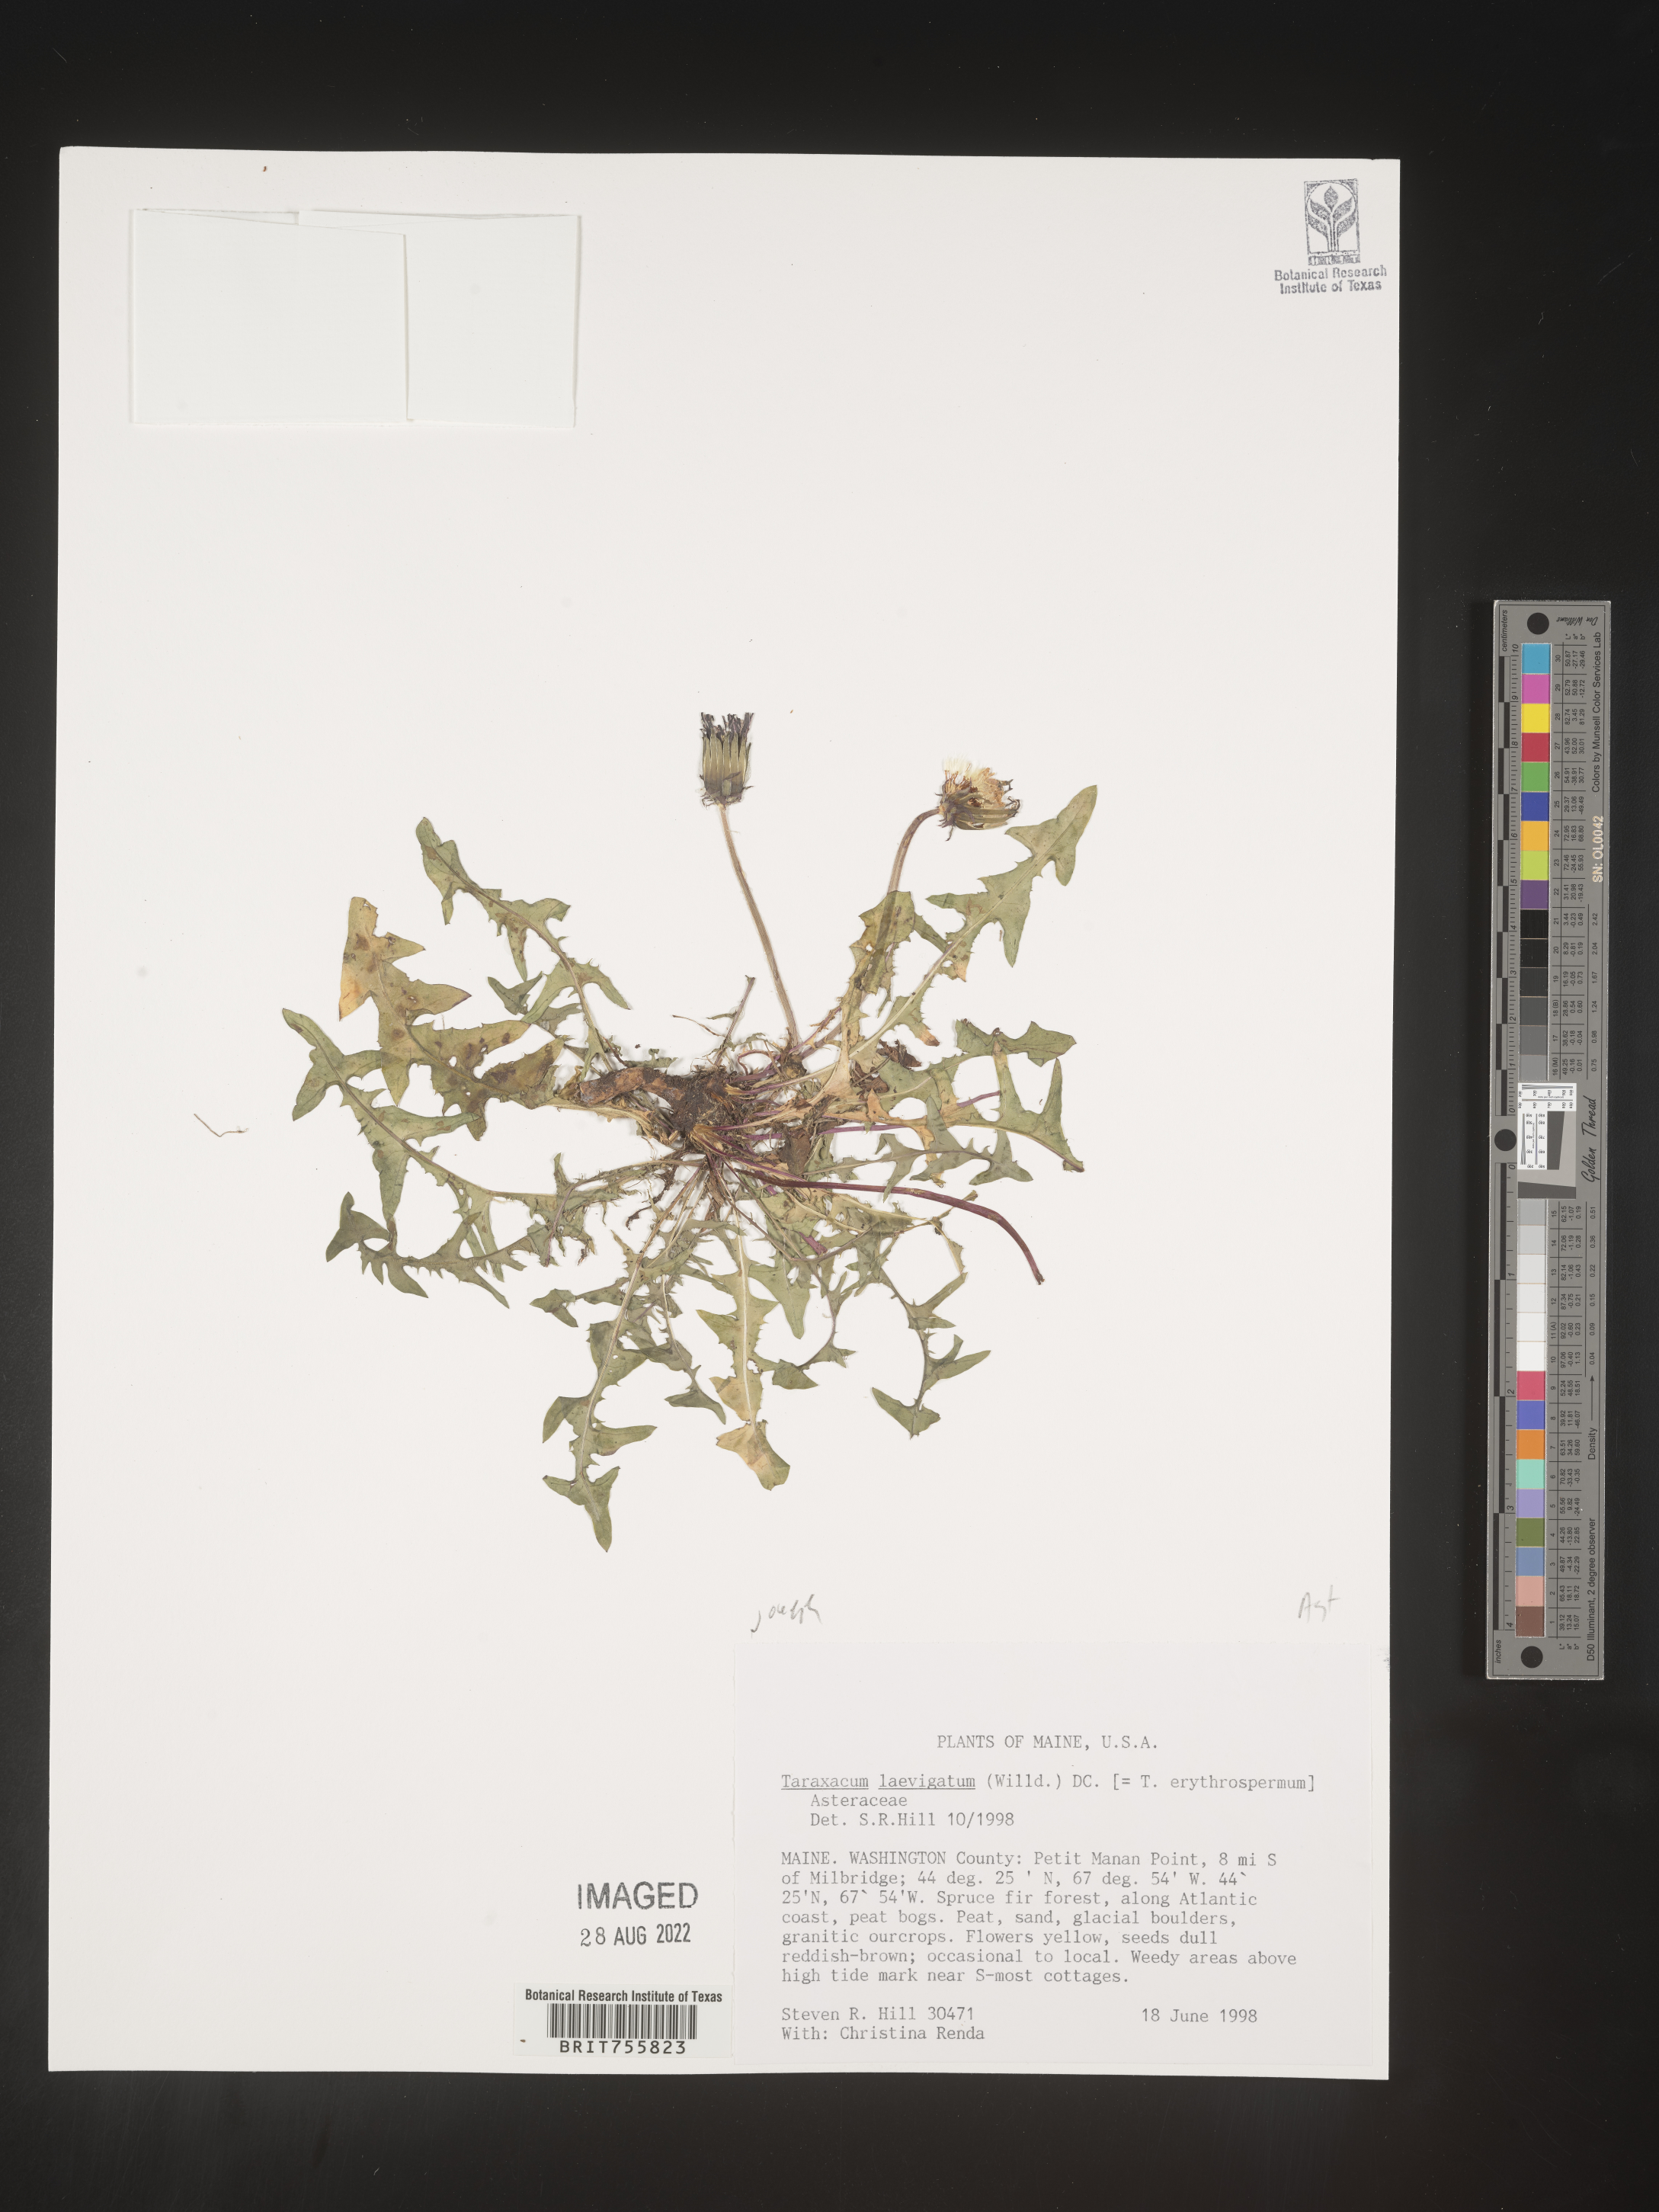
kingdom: Plantae
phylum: Tracheophyta
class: Magnoliopsida
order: Asterales
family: Asteraceae
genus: Taraxacum
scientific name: Taraxacum
